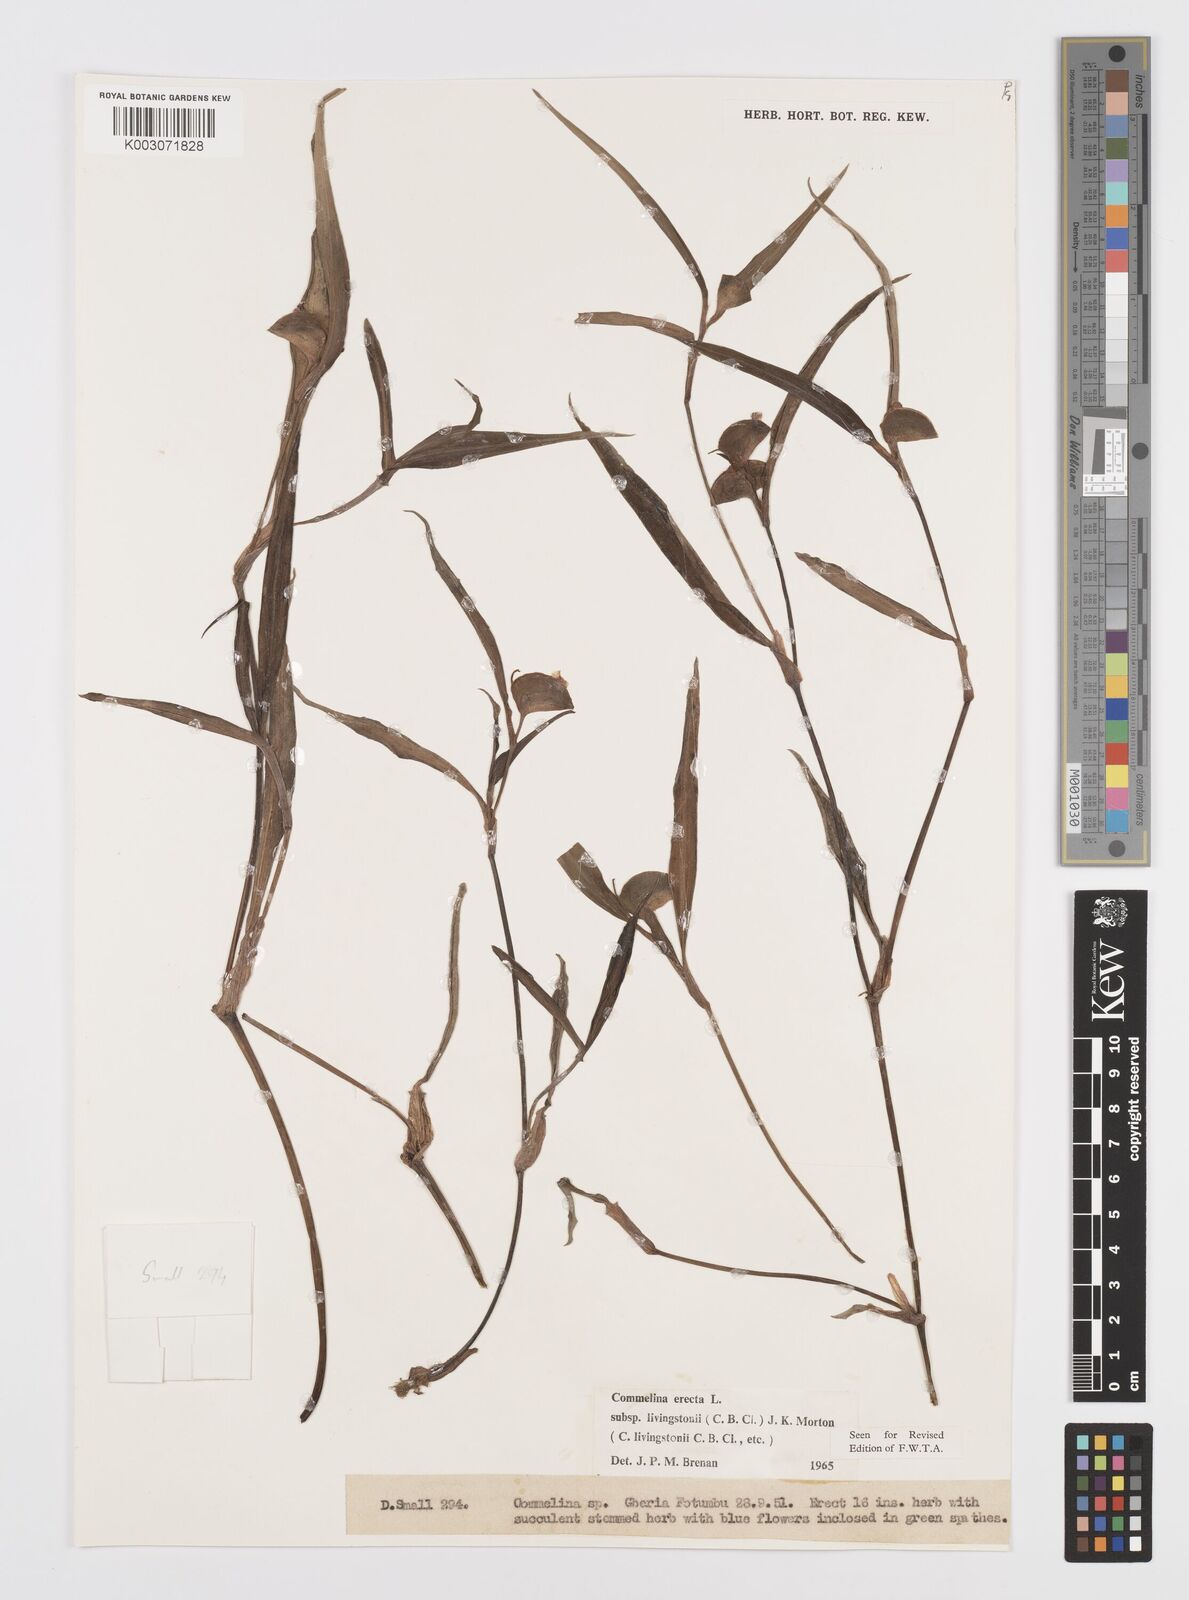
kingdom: Plantae
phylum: Tracheophyta
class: Liliopsida
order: Commelinales
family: Commelinaceae
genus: Commelina
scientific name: Commelina erecta
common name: Blousel blommetjie
